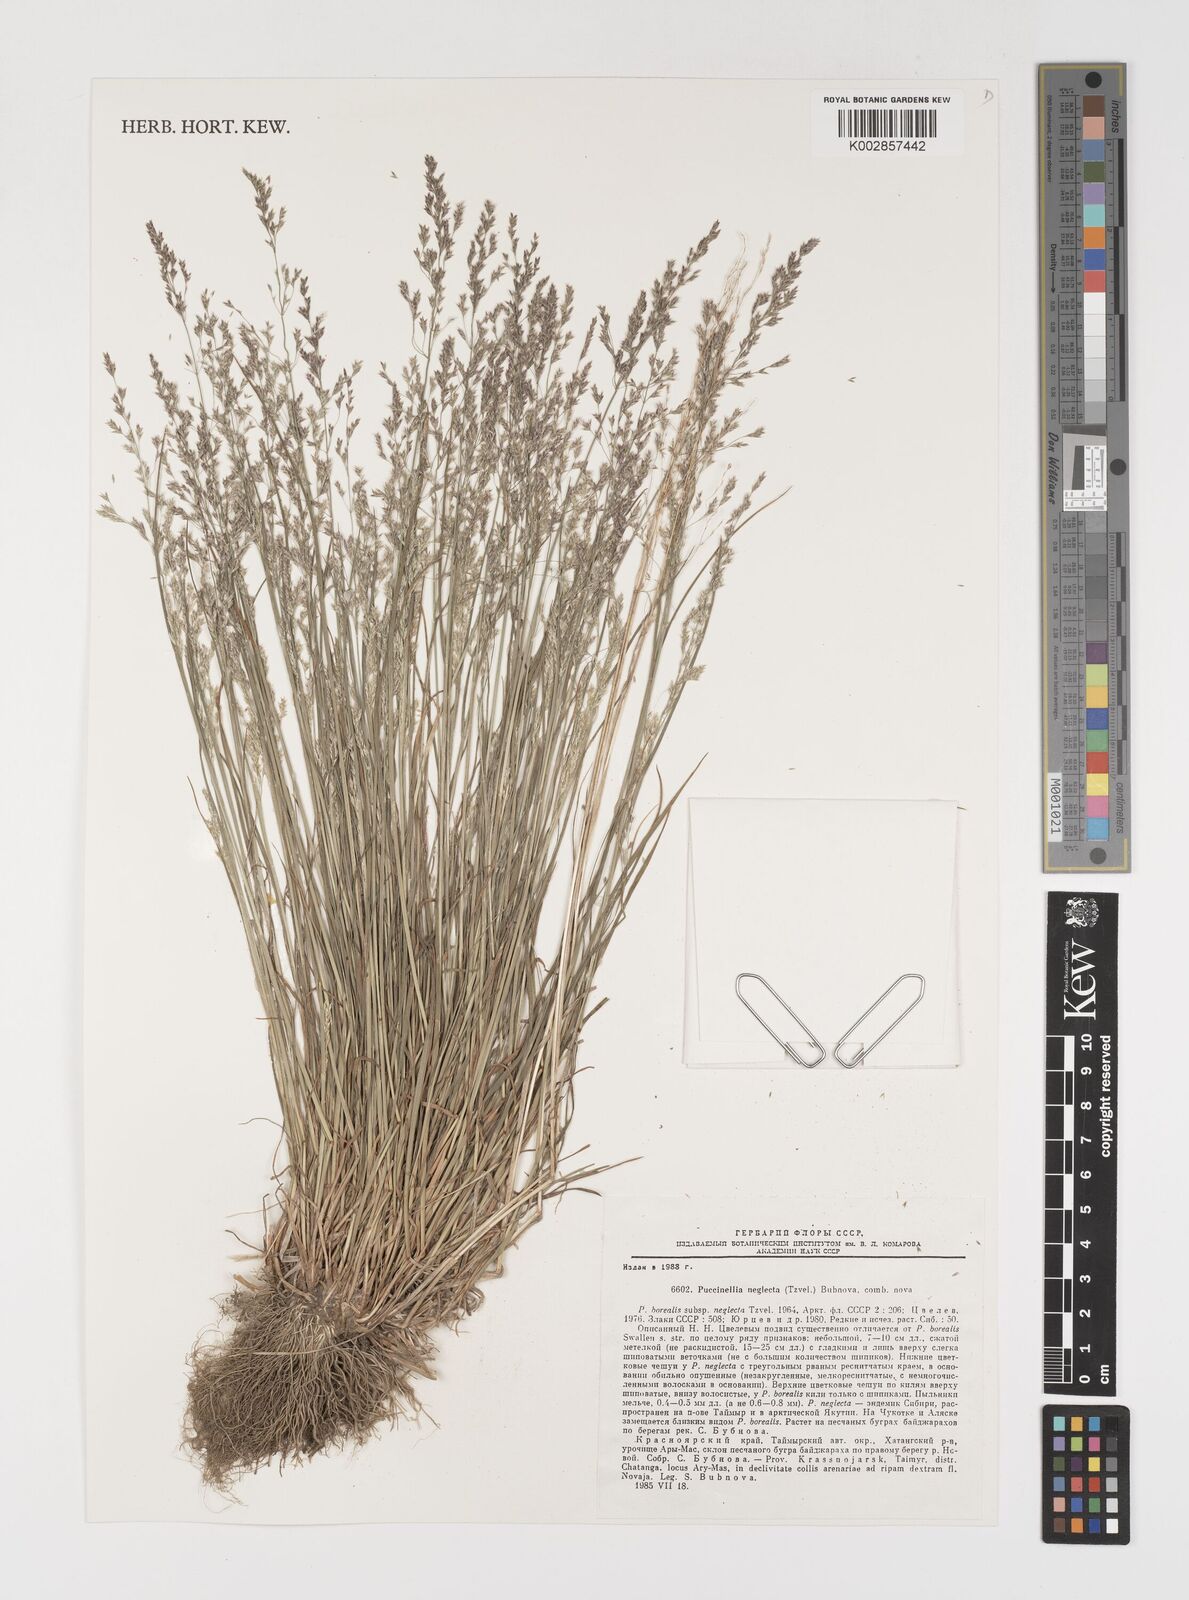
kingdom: Plantae
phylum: Tracheophyta
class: Liliopsida
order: Poales
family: Poaceae
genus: Puccinellia
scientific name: Puccinellia nuttalliana
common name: Nuttall's alkali grass
